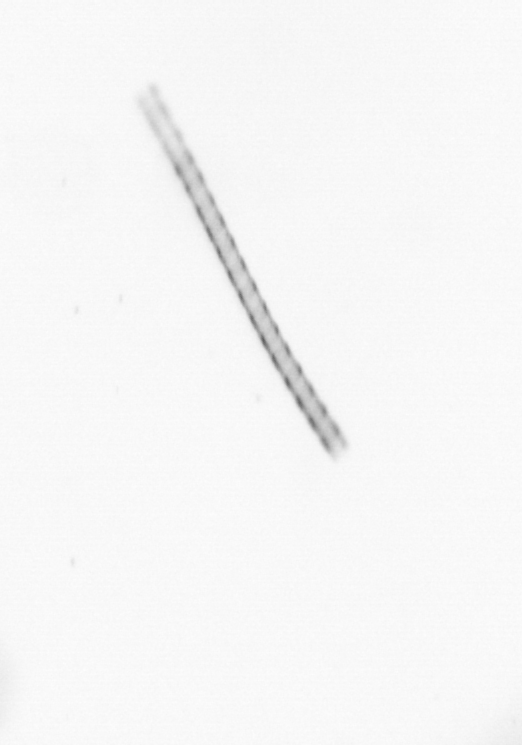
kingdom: Chromista
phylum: Ochrophyta
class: Bacillariophyceae
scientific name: Bacillariophyceae
